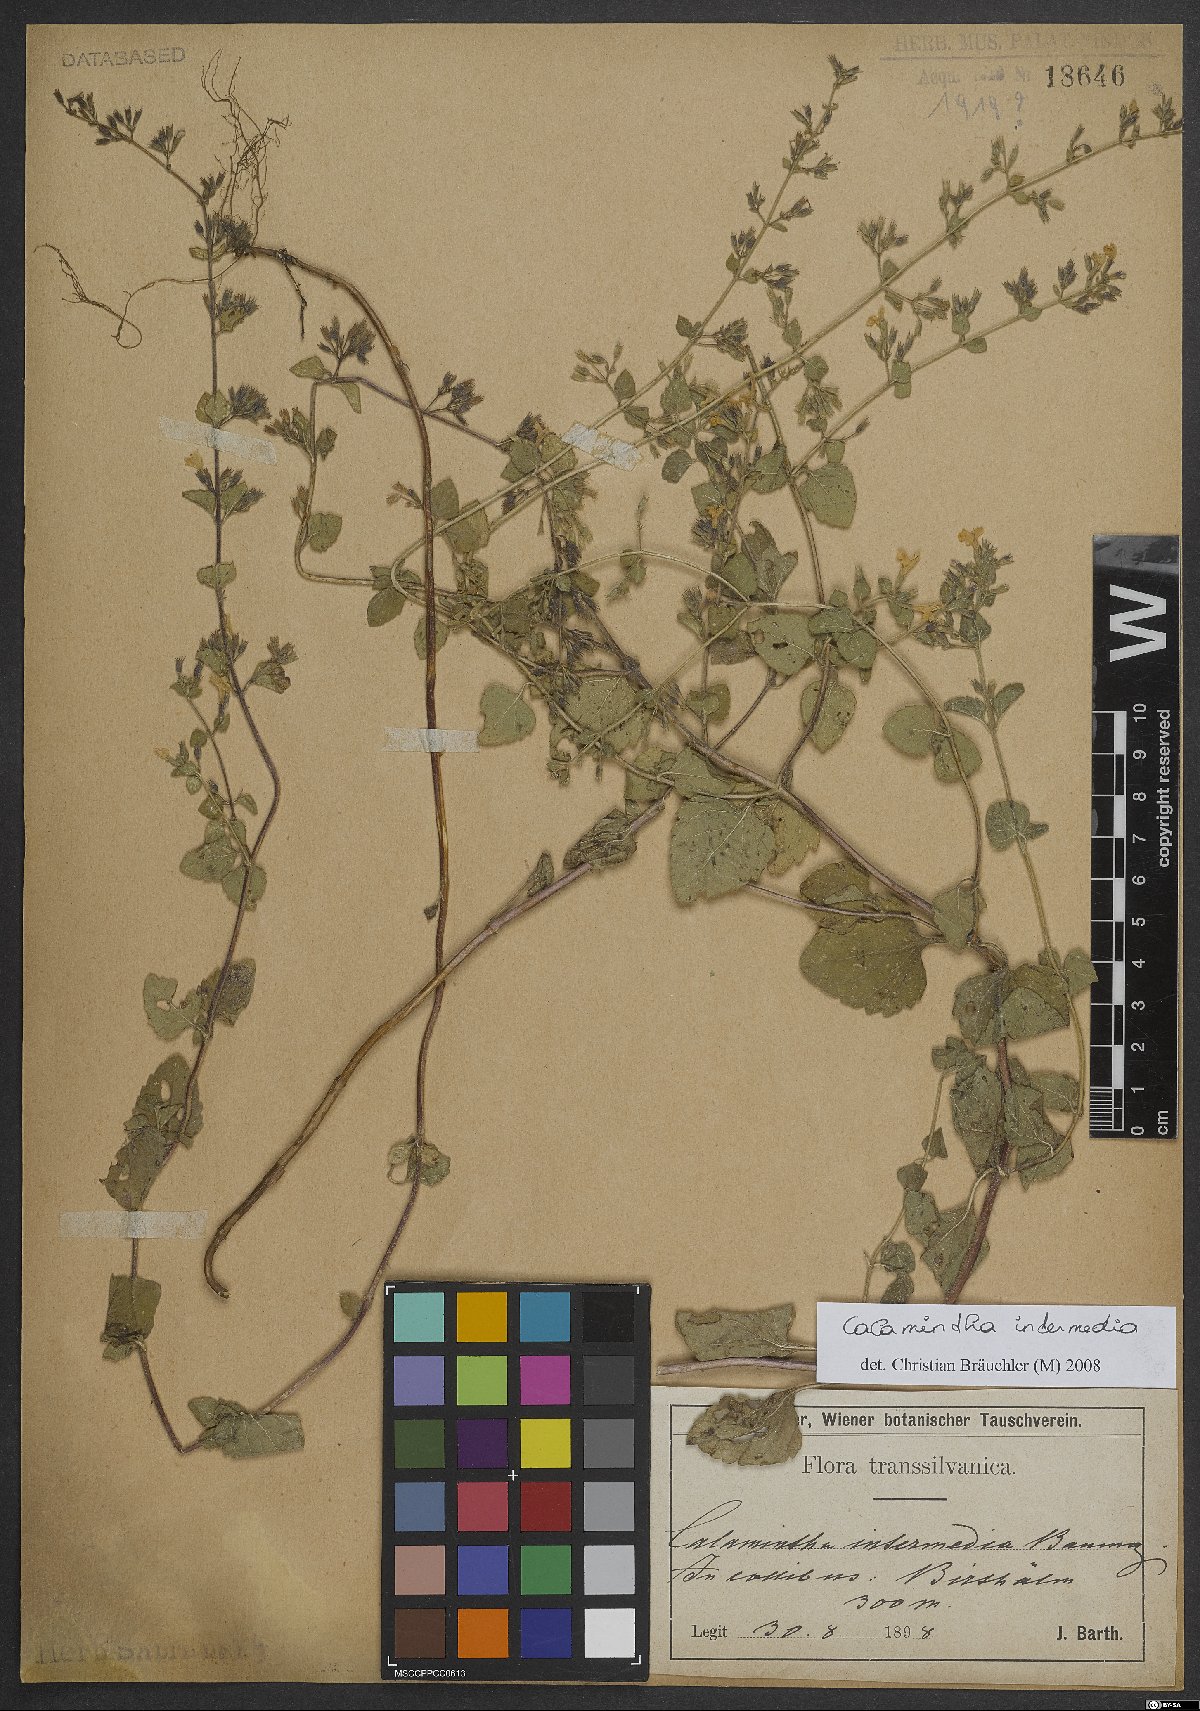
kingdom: Plantae
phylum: Tracheophyta
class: Magnoliopsida
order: Lamiales
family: Lamiaceae
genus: Clinopodium
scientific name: Clinopodium Calamintha intermedia
